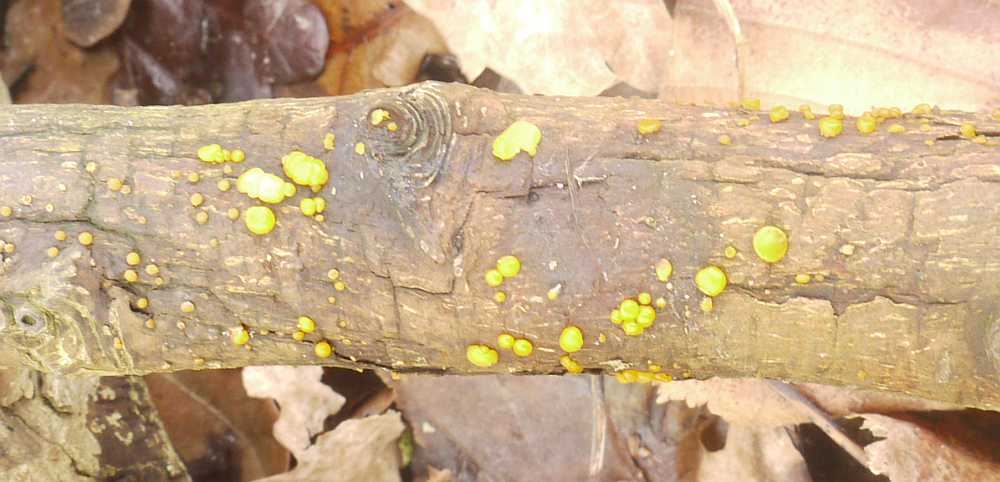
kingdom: Fungi
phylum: Basidiomycota
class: Dacrymycetes
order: Dacrymycetales
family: Dacrymycetaceae
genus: Dacrymyces
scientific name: Dacrymyces lacrymalis
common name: rynket tåresvamp
